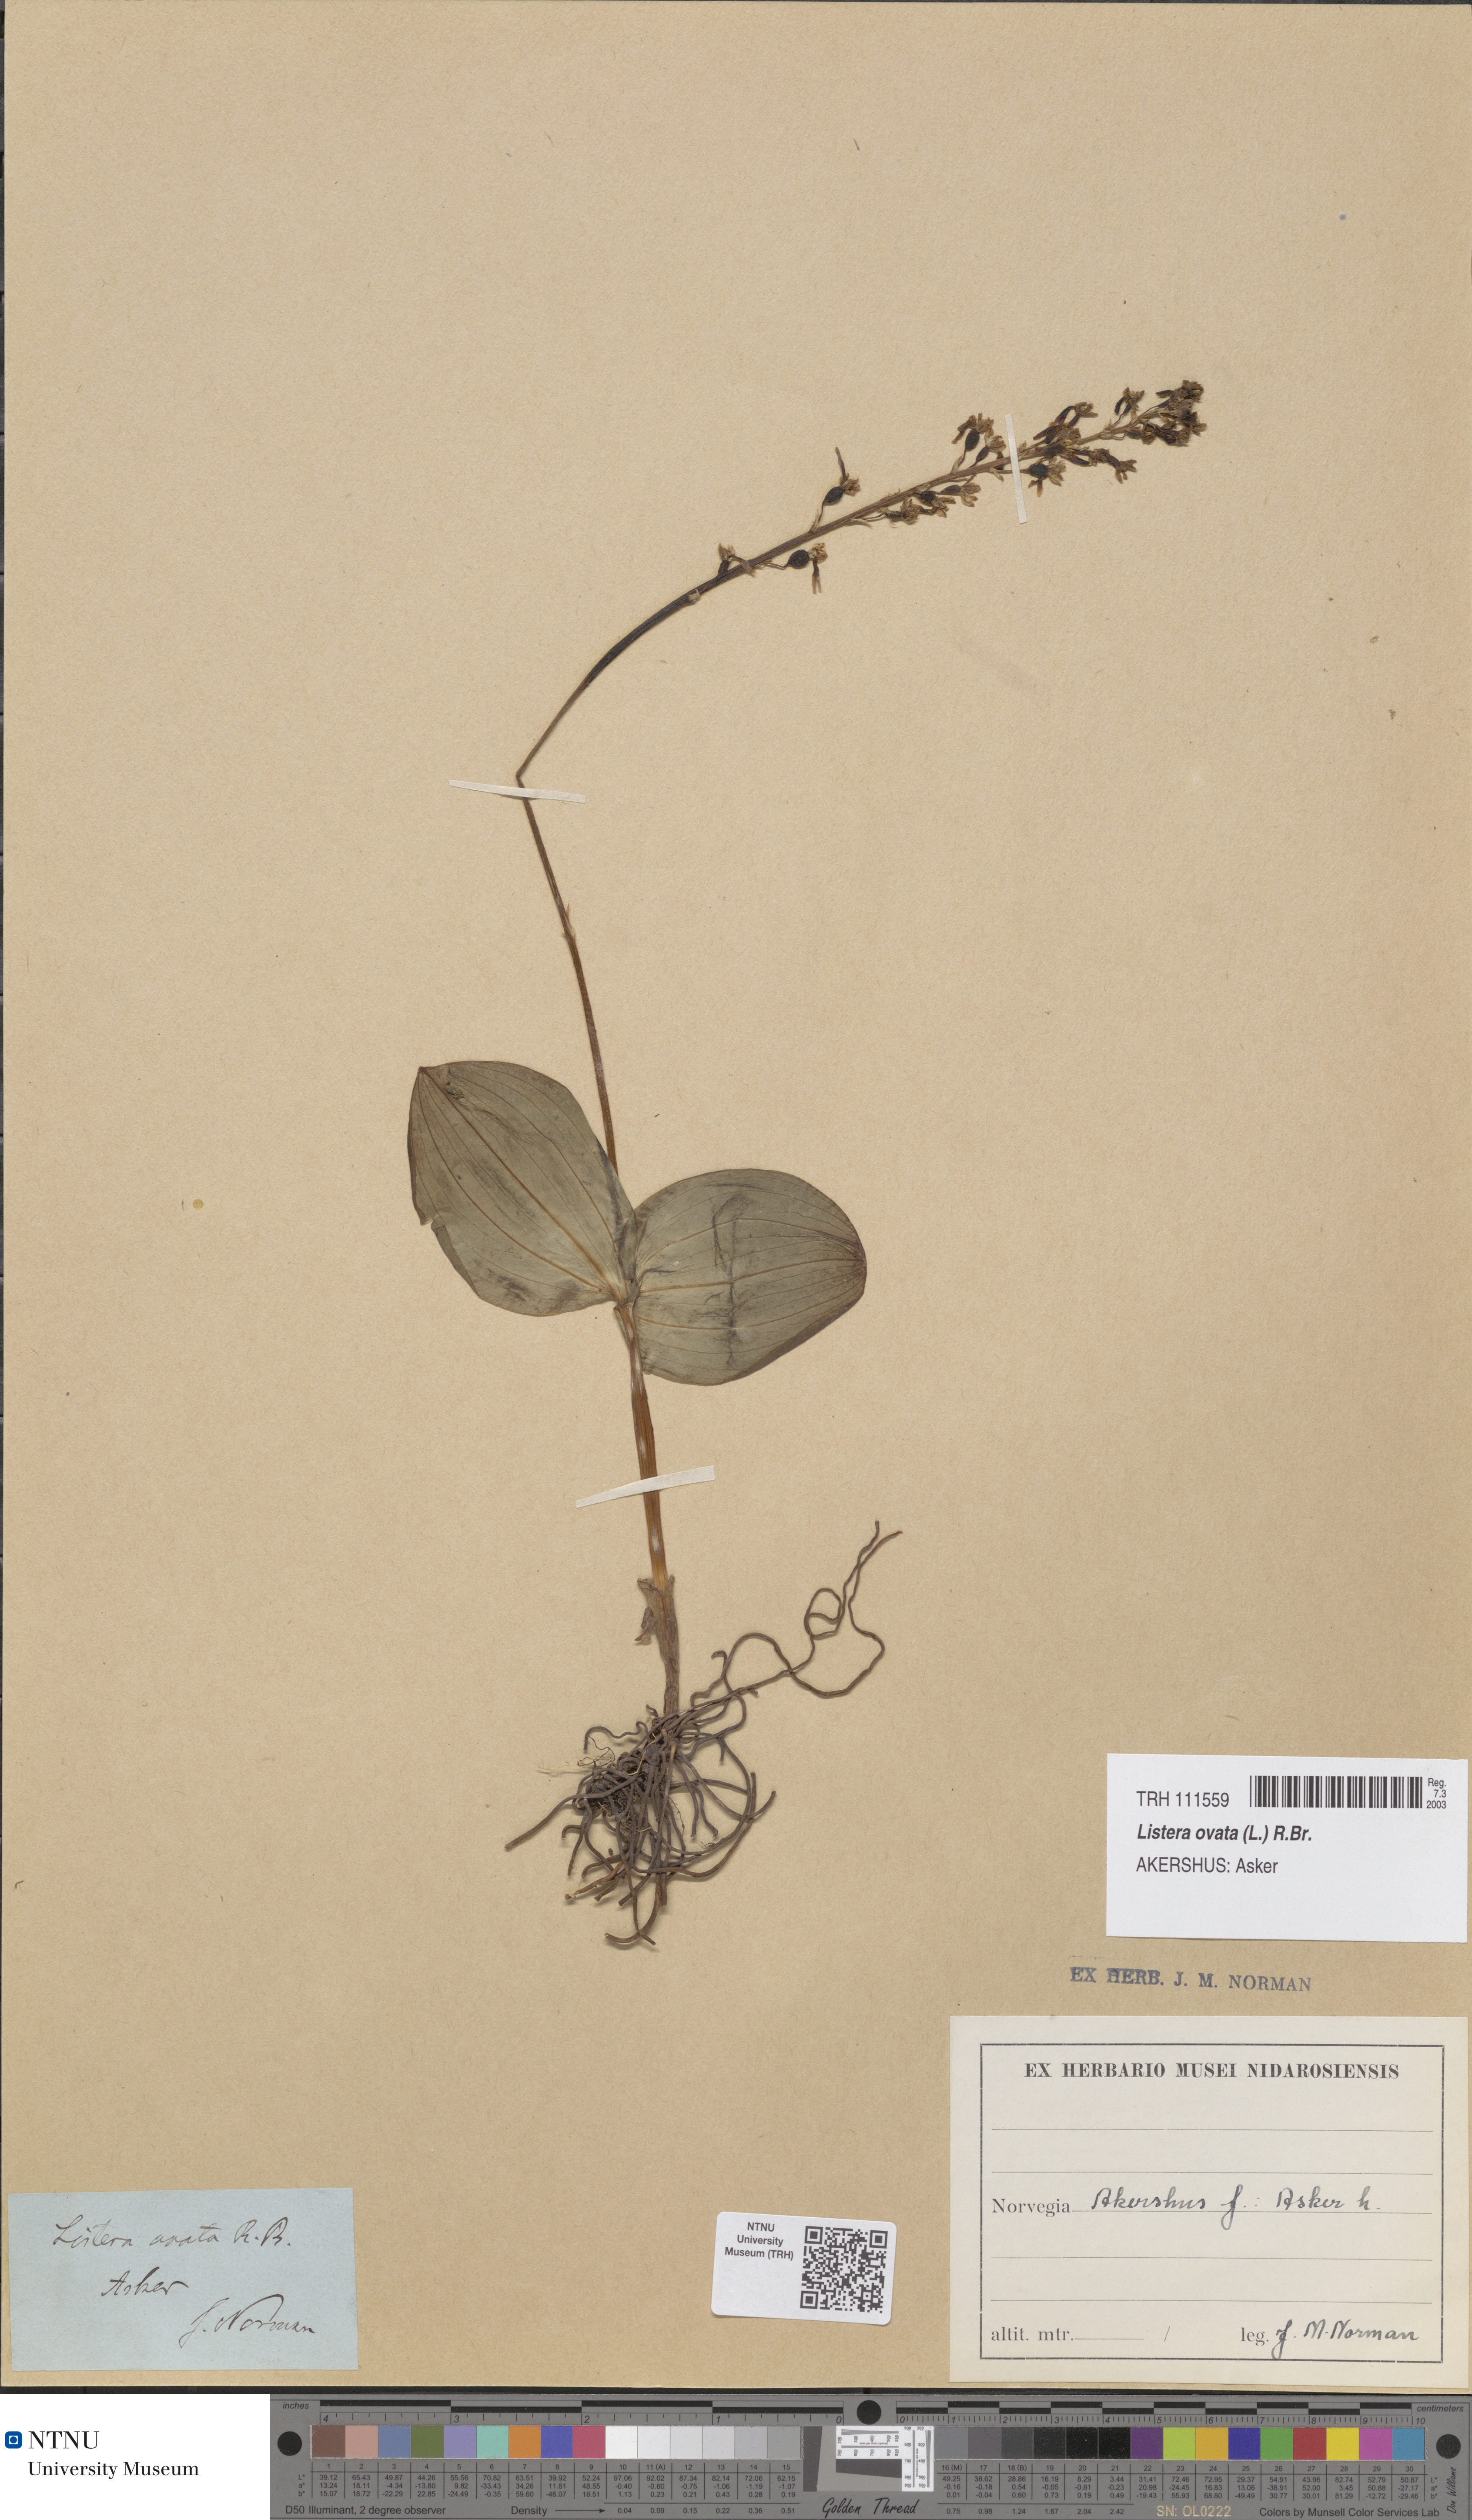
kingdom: Plantae
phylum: Tracheophyta
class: Liliopsida
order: Asparagales
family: Orchidaceae
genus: Neottia
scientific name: Neottia ovata
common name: Common twayblade
